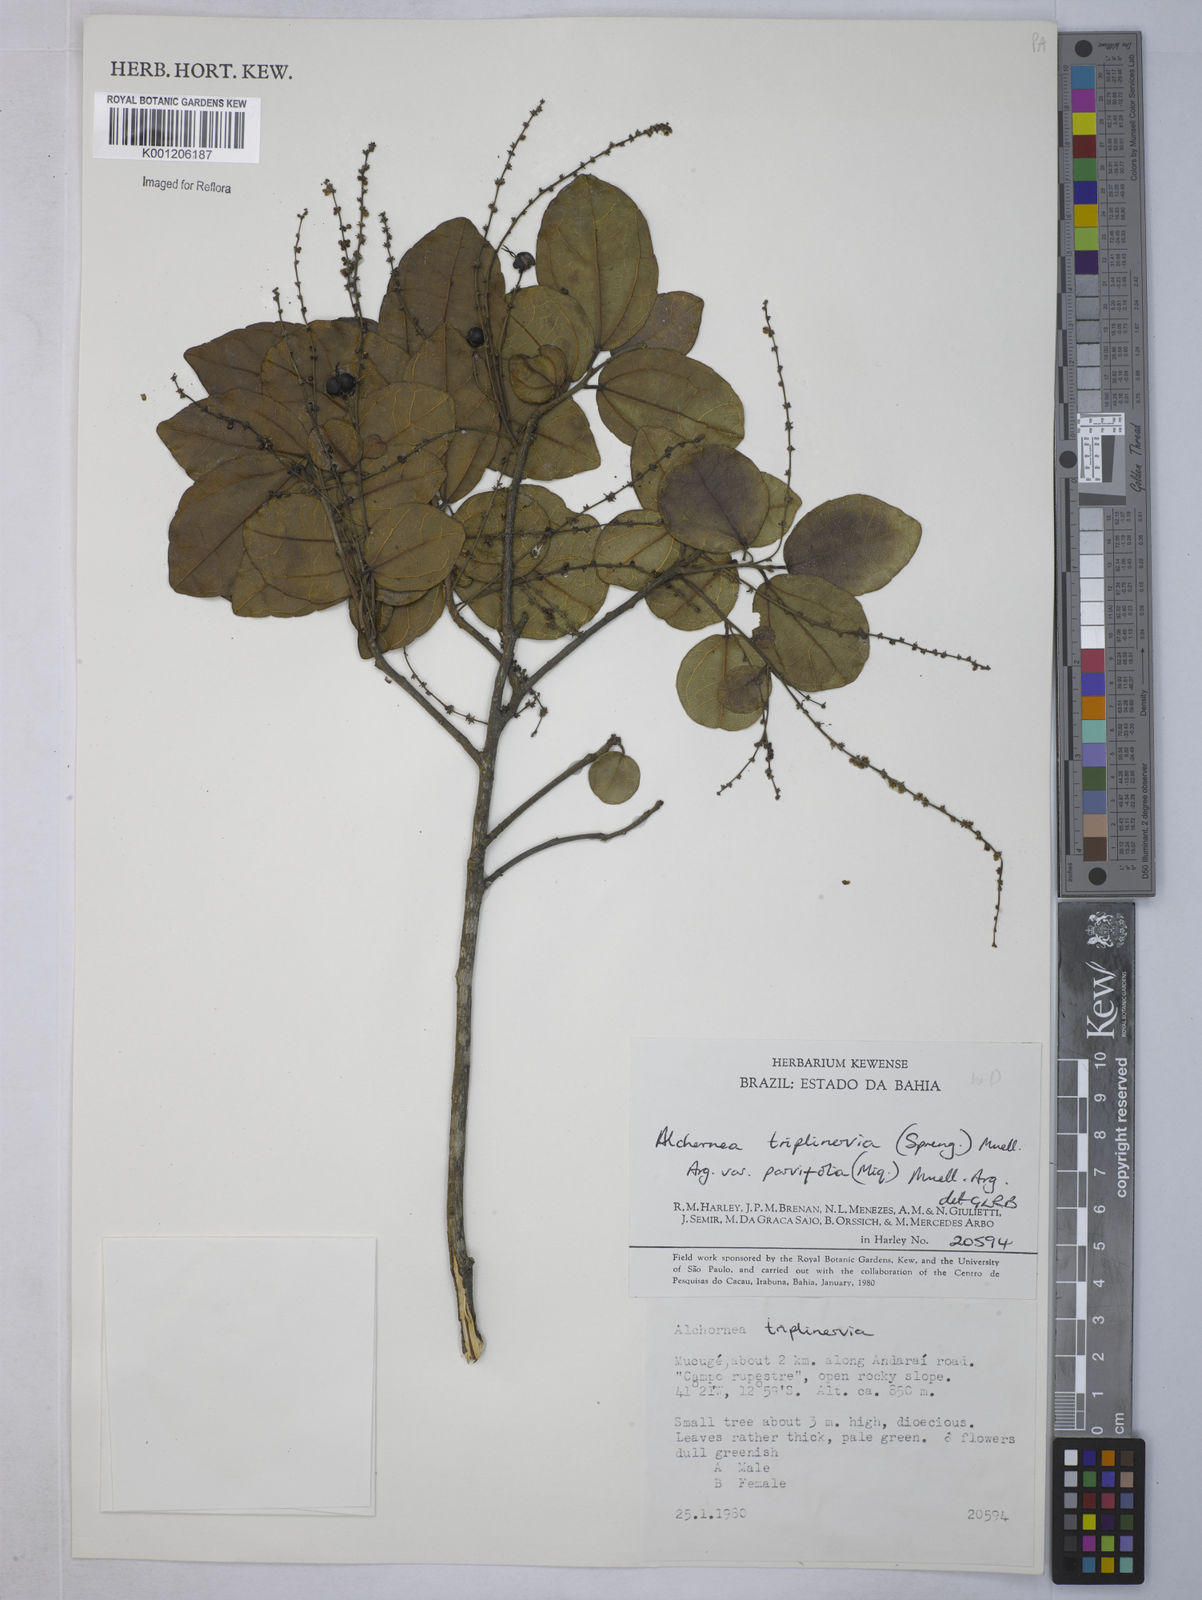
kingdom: Plantae
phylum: Tracheophyta
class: Magnoliopsida
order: Malpighiales
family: Euphorbiaceae
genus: Alchornea
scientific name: Alchornea
